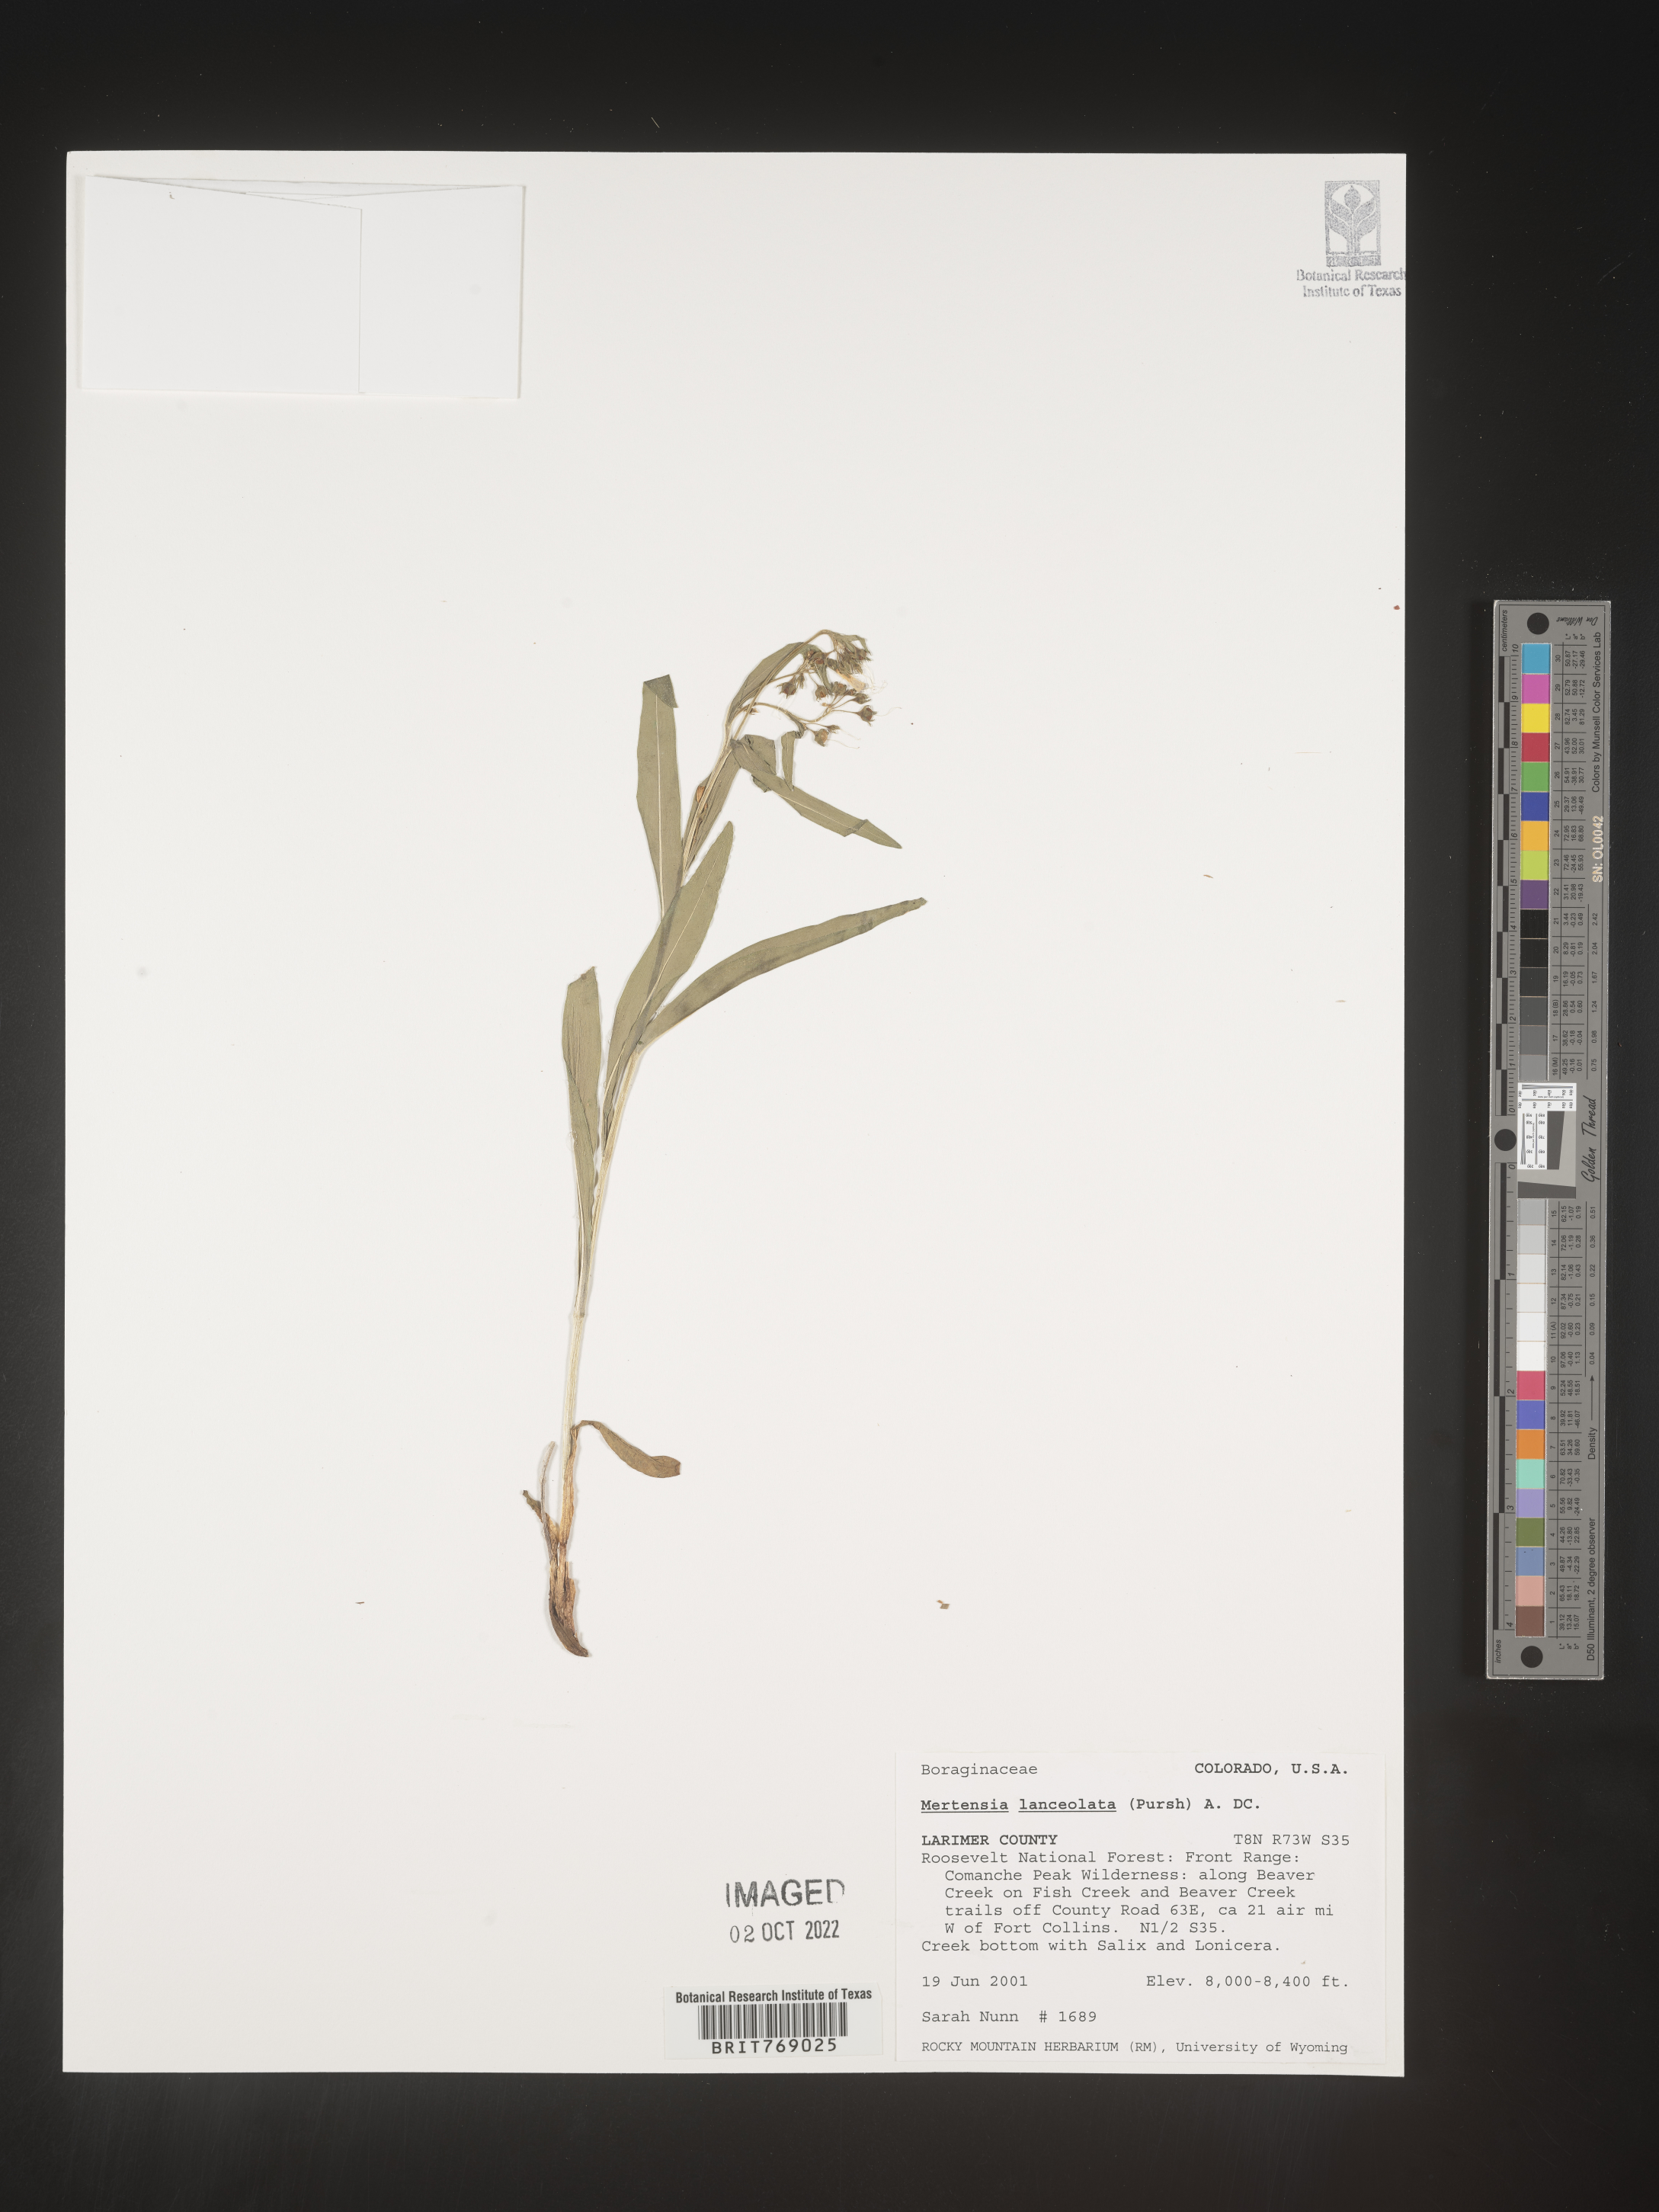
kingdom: Plantae
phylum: Tracheophyta
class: Magnoliopsida
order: Boraginales
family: Boraginaceae
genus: Mertensia
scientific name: Mertensia
